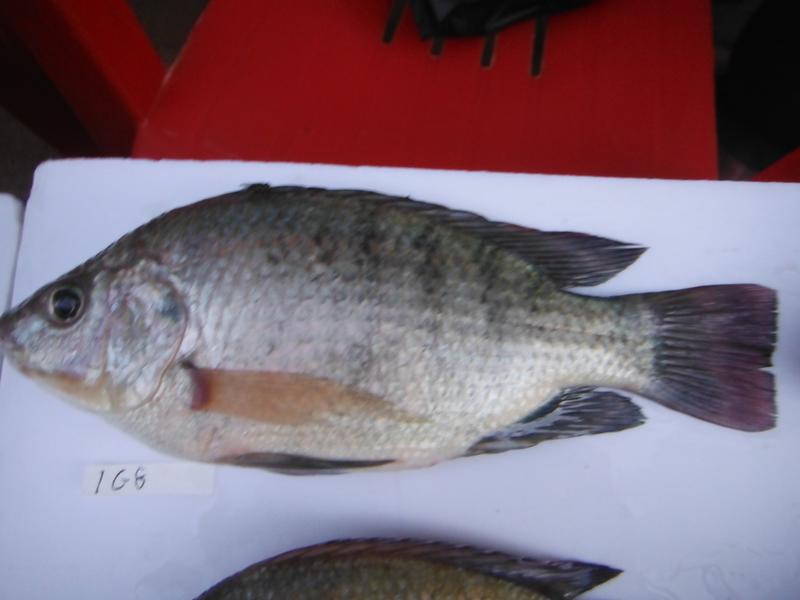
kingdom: Animalia
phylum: Chordata
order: Perciformes
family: Cichlidae
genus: Oreochromis
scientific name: Oreochromis rukwaensis
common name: Lake rukwa tilapia
